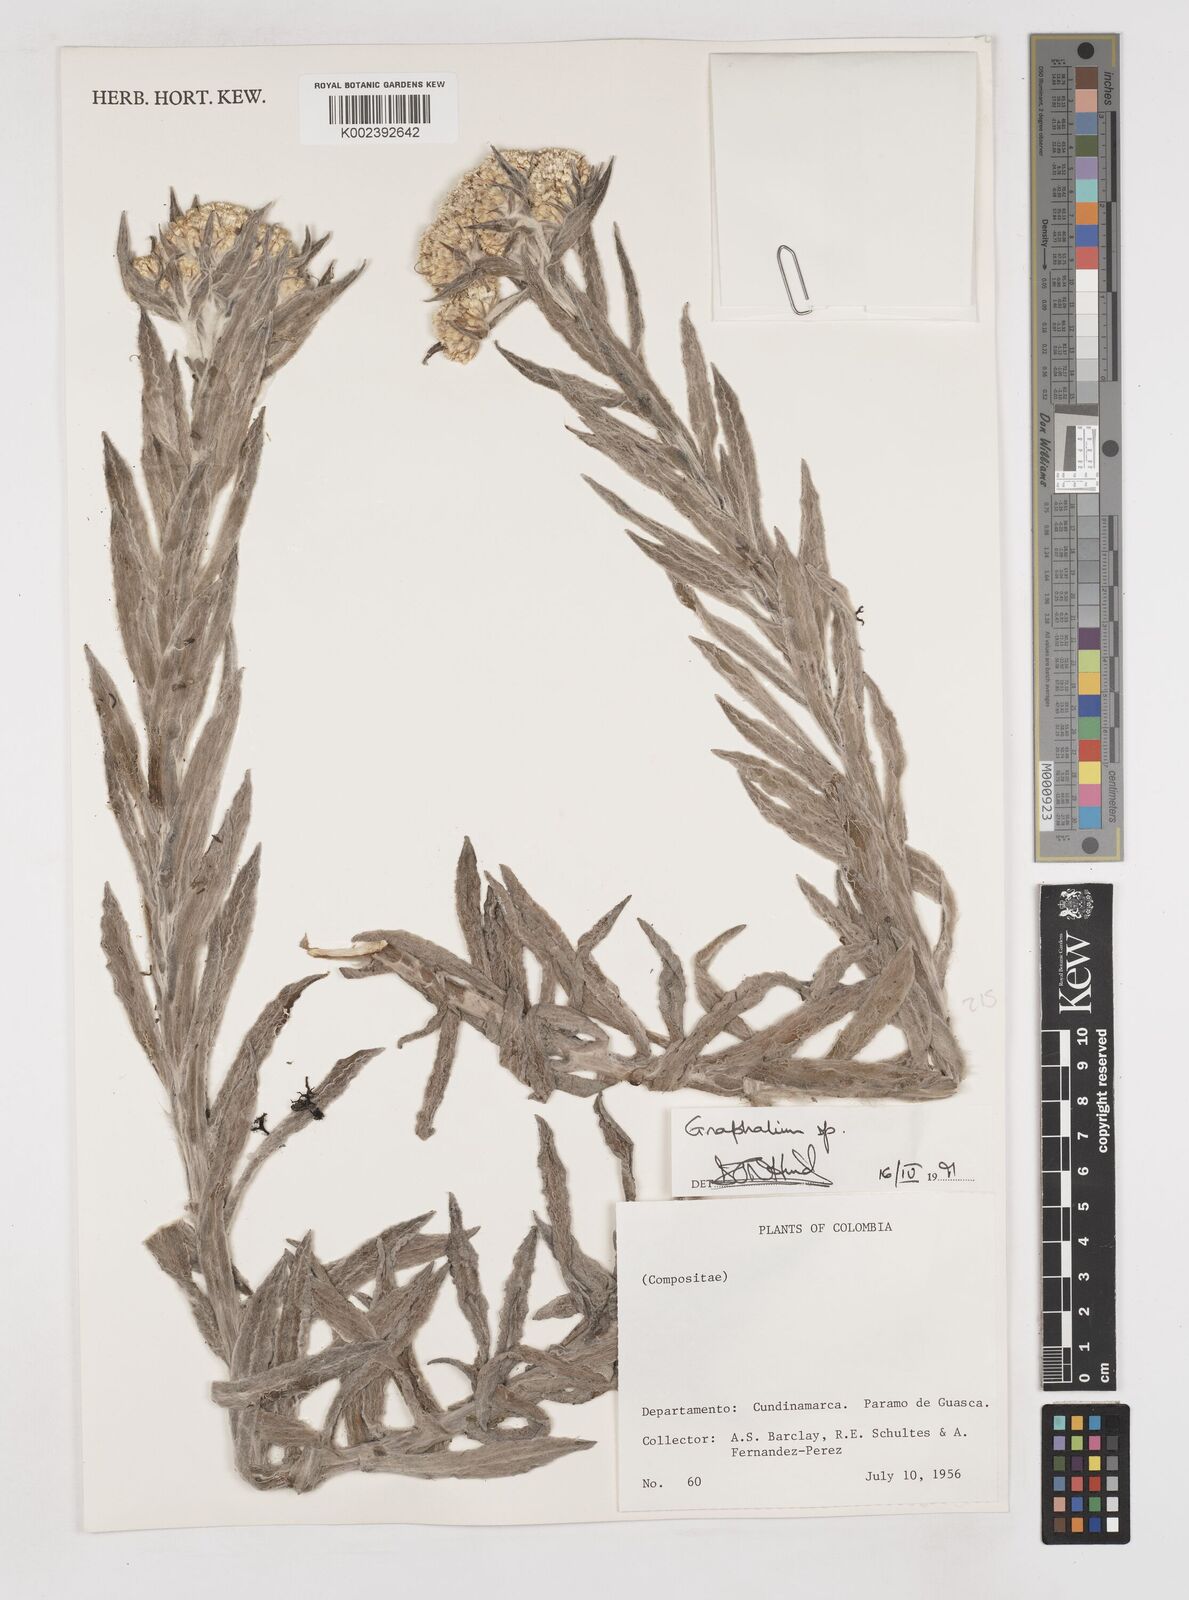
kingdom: Plantae
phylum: Tracheophyta
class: Magnoliopsida
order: Asterales
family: Asteraceae
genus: Gnaphalium
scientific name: Gnaphalium
